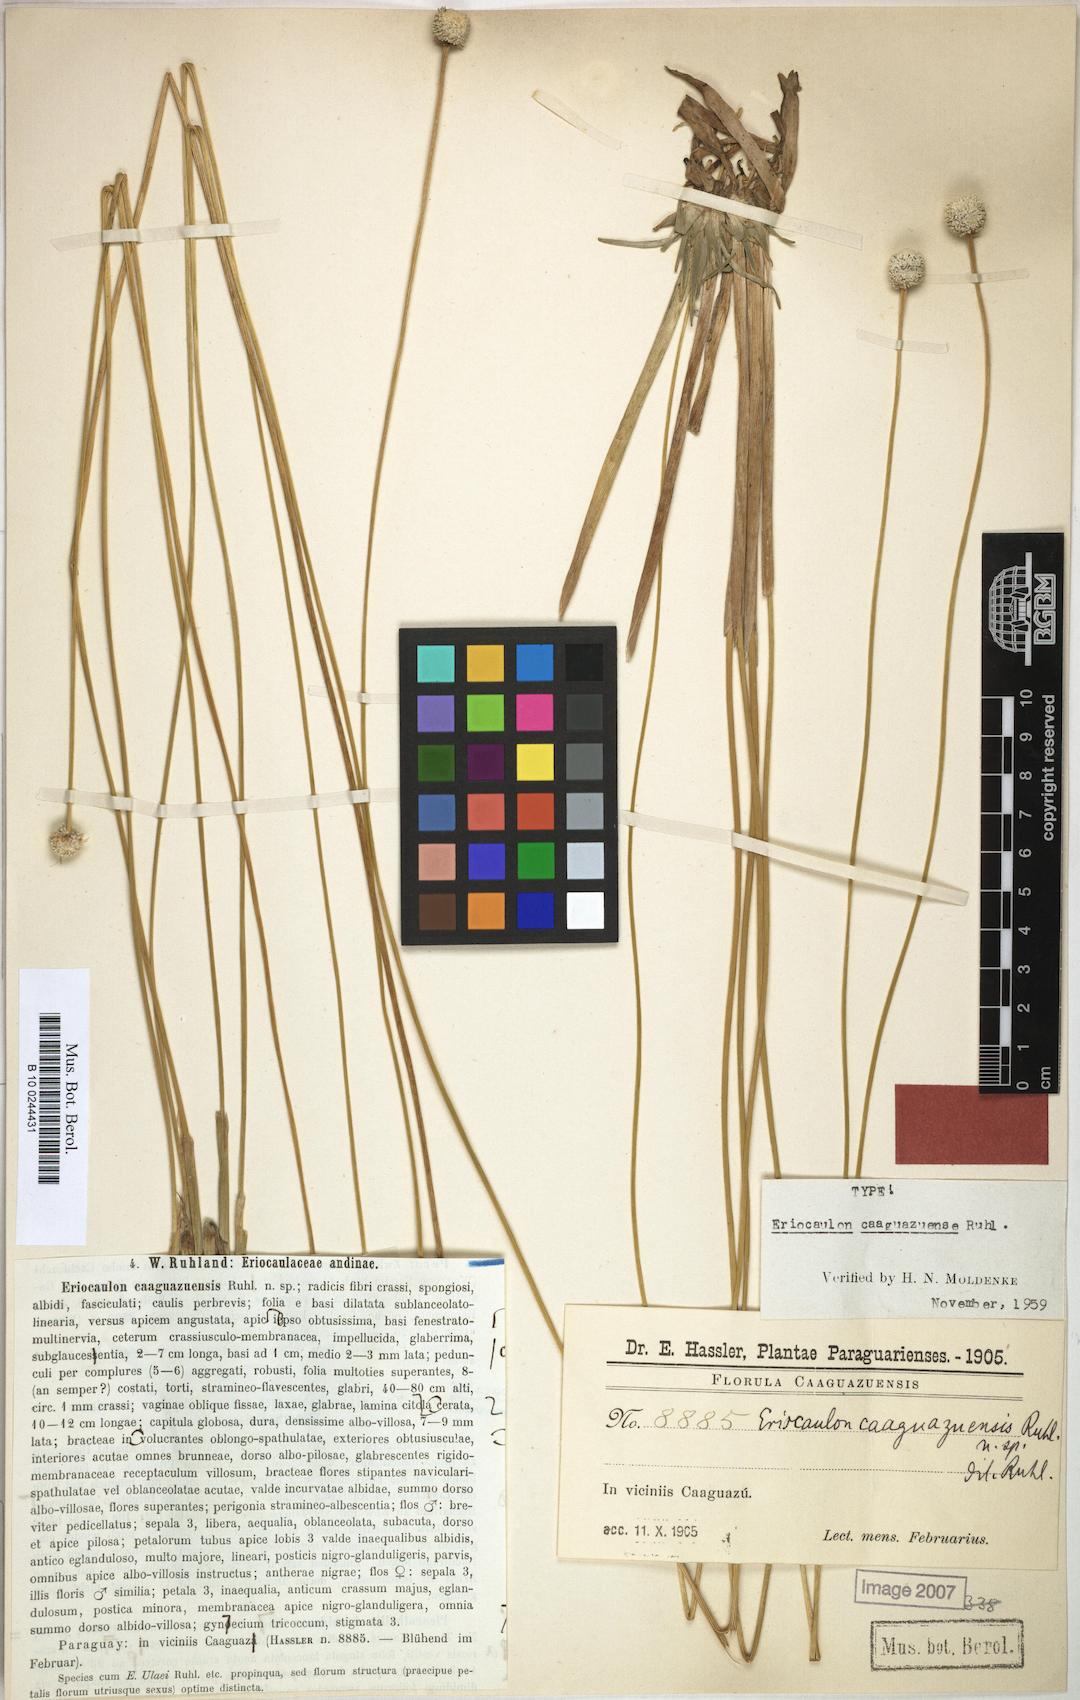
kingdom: Plantae
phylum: Tracheophyta
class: Liliopsida
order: Poales
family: Eriocaulaceae
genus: Eriocaulon
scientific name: Eriocaulon caaguazuensis
